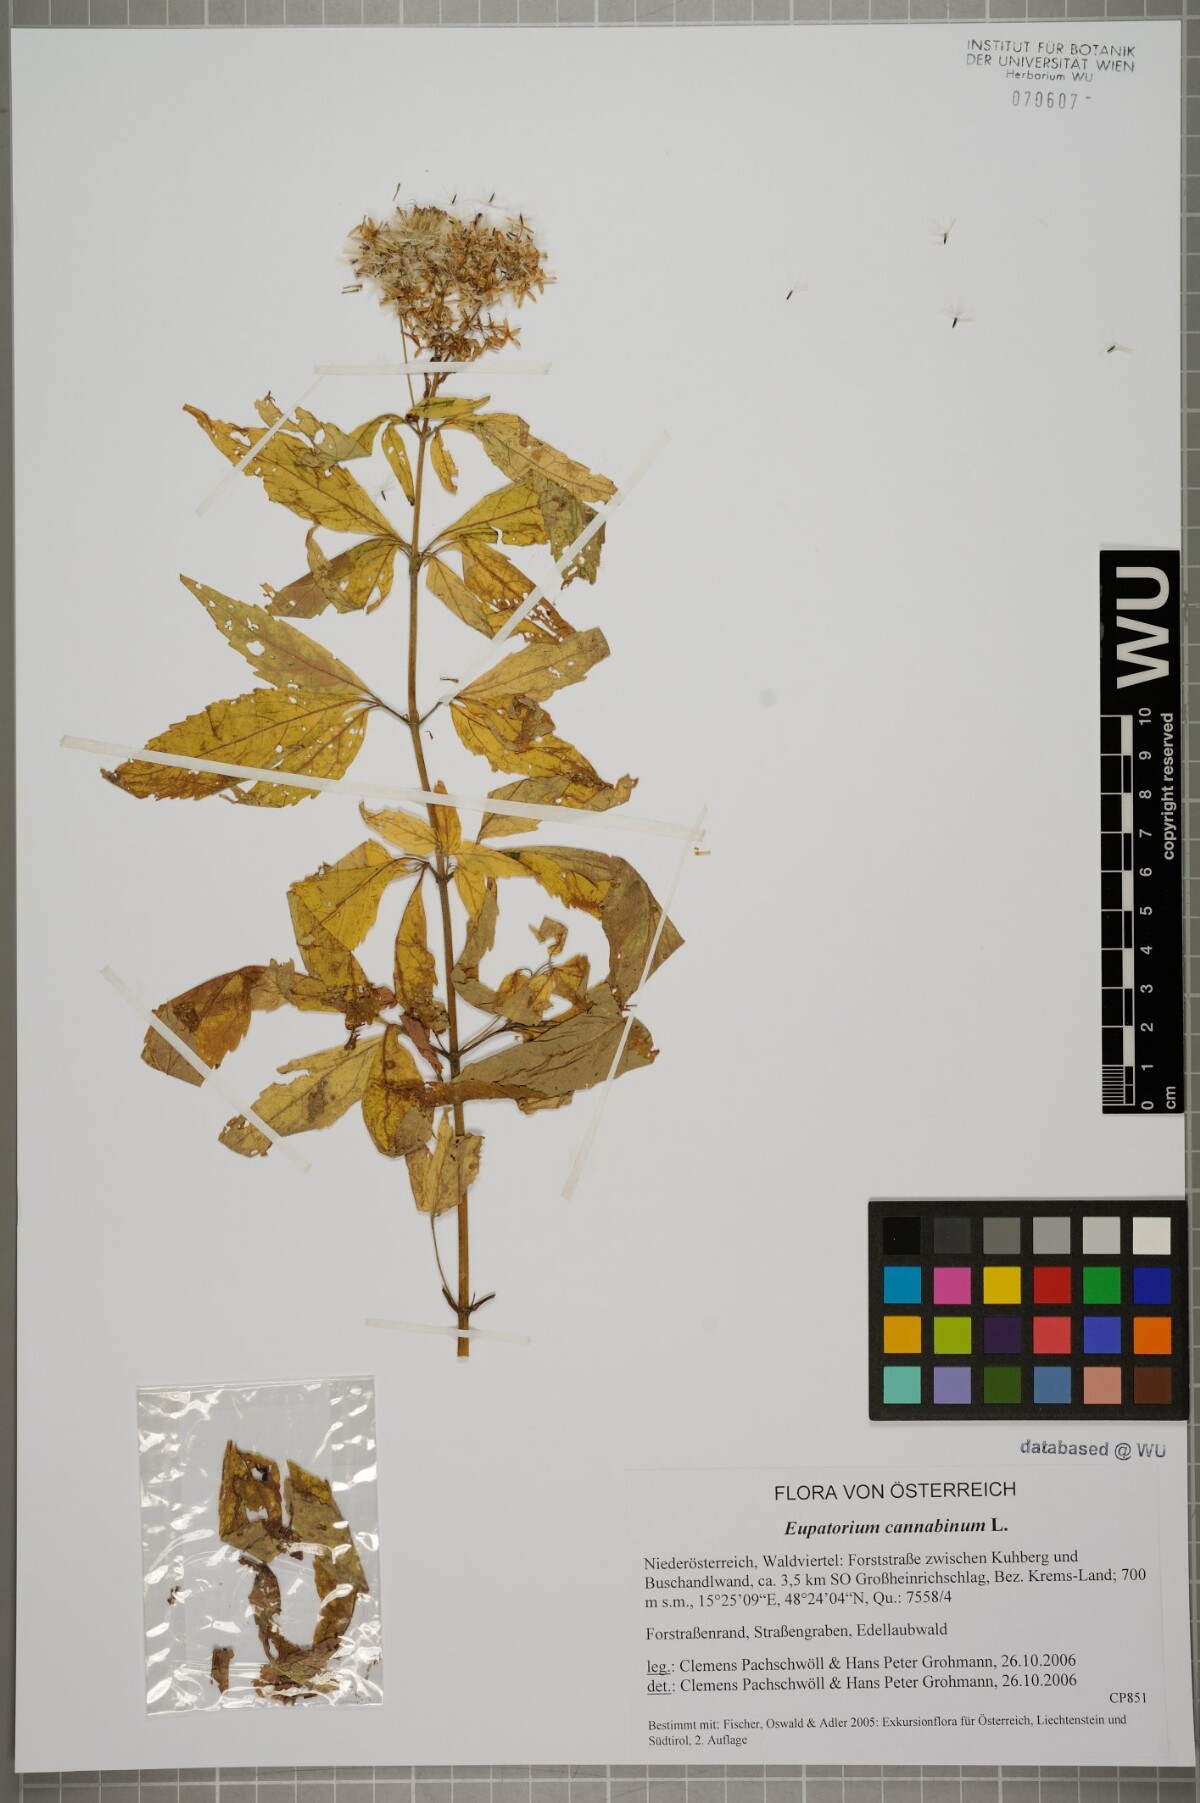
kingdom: Plantae
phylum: Tracheophyta
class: Magnoliopsida
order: Asterales
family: Asteraceae
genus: Eupatorium
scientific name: Eupatorium cannabinum
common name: Hemp-agrimony
